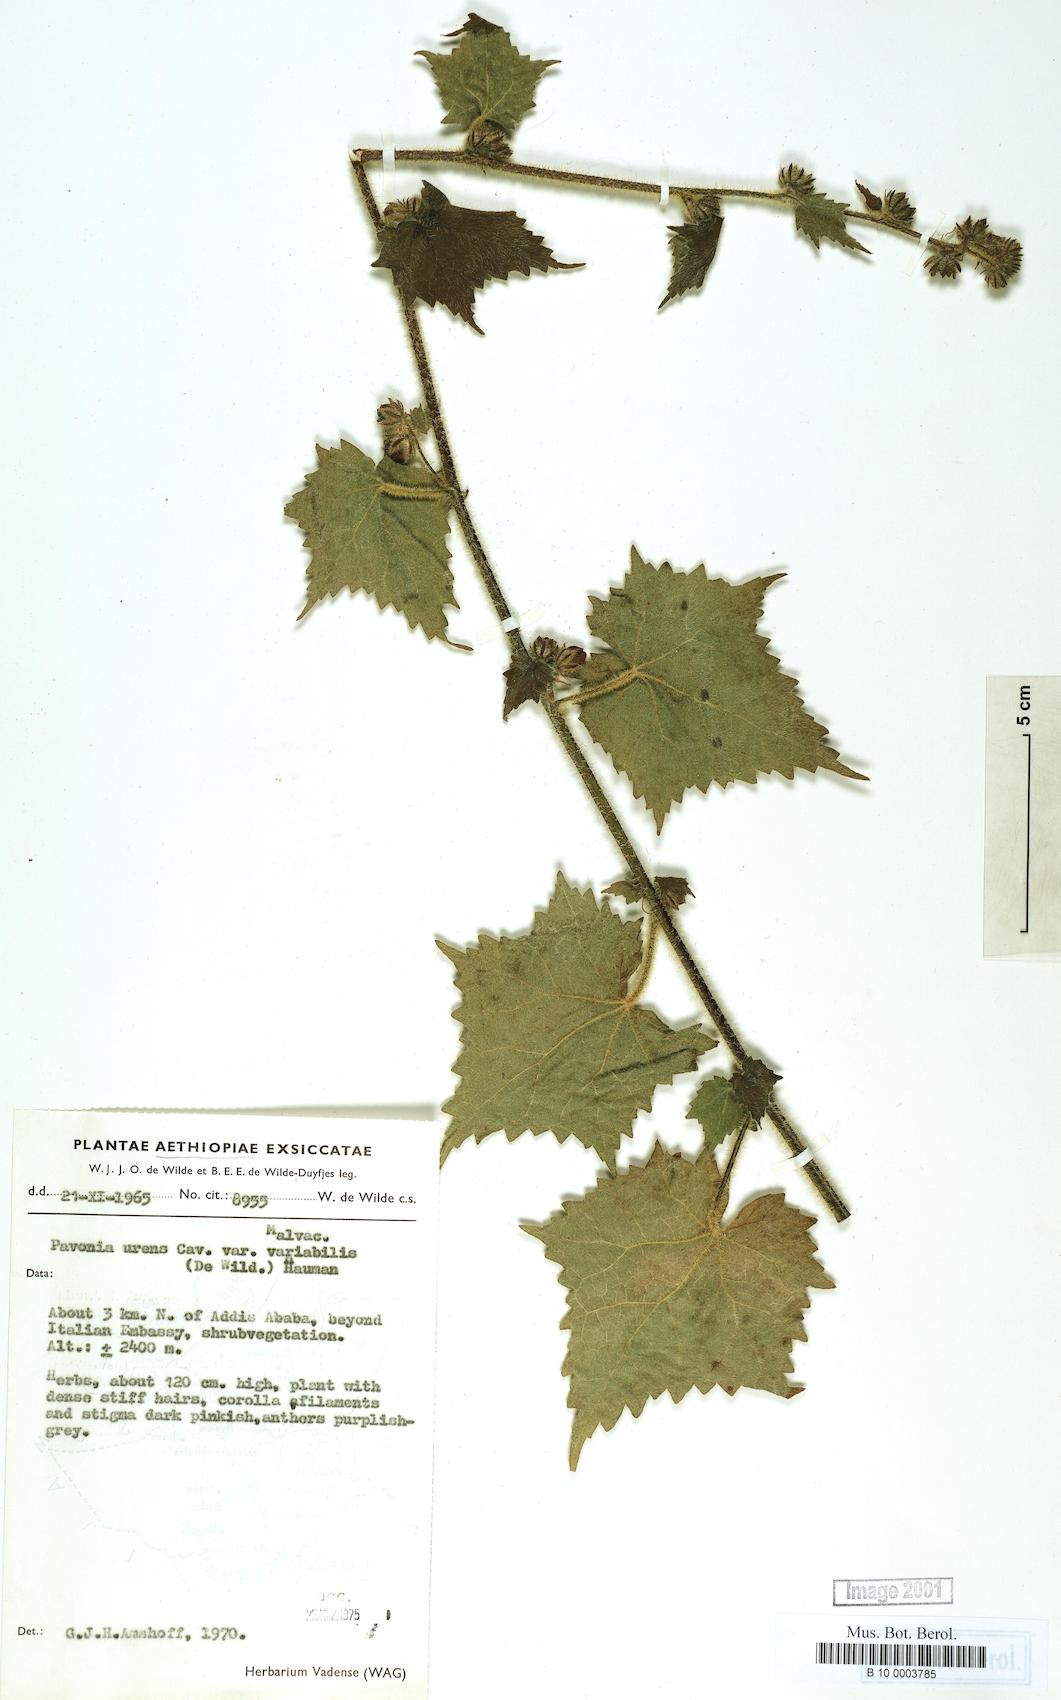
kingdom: Plantae
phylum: Tracheophyta
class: Magnoliopsida
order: Malvales
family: Malvaceae
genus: Pavonia
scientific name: Pavonia urens
